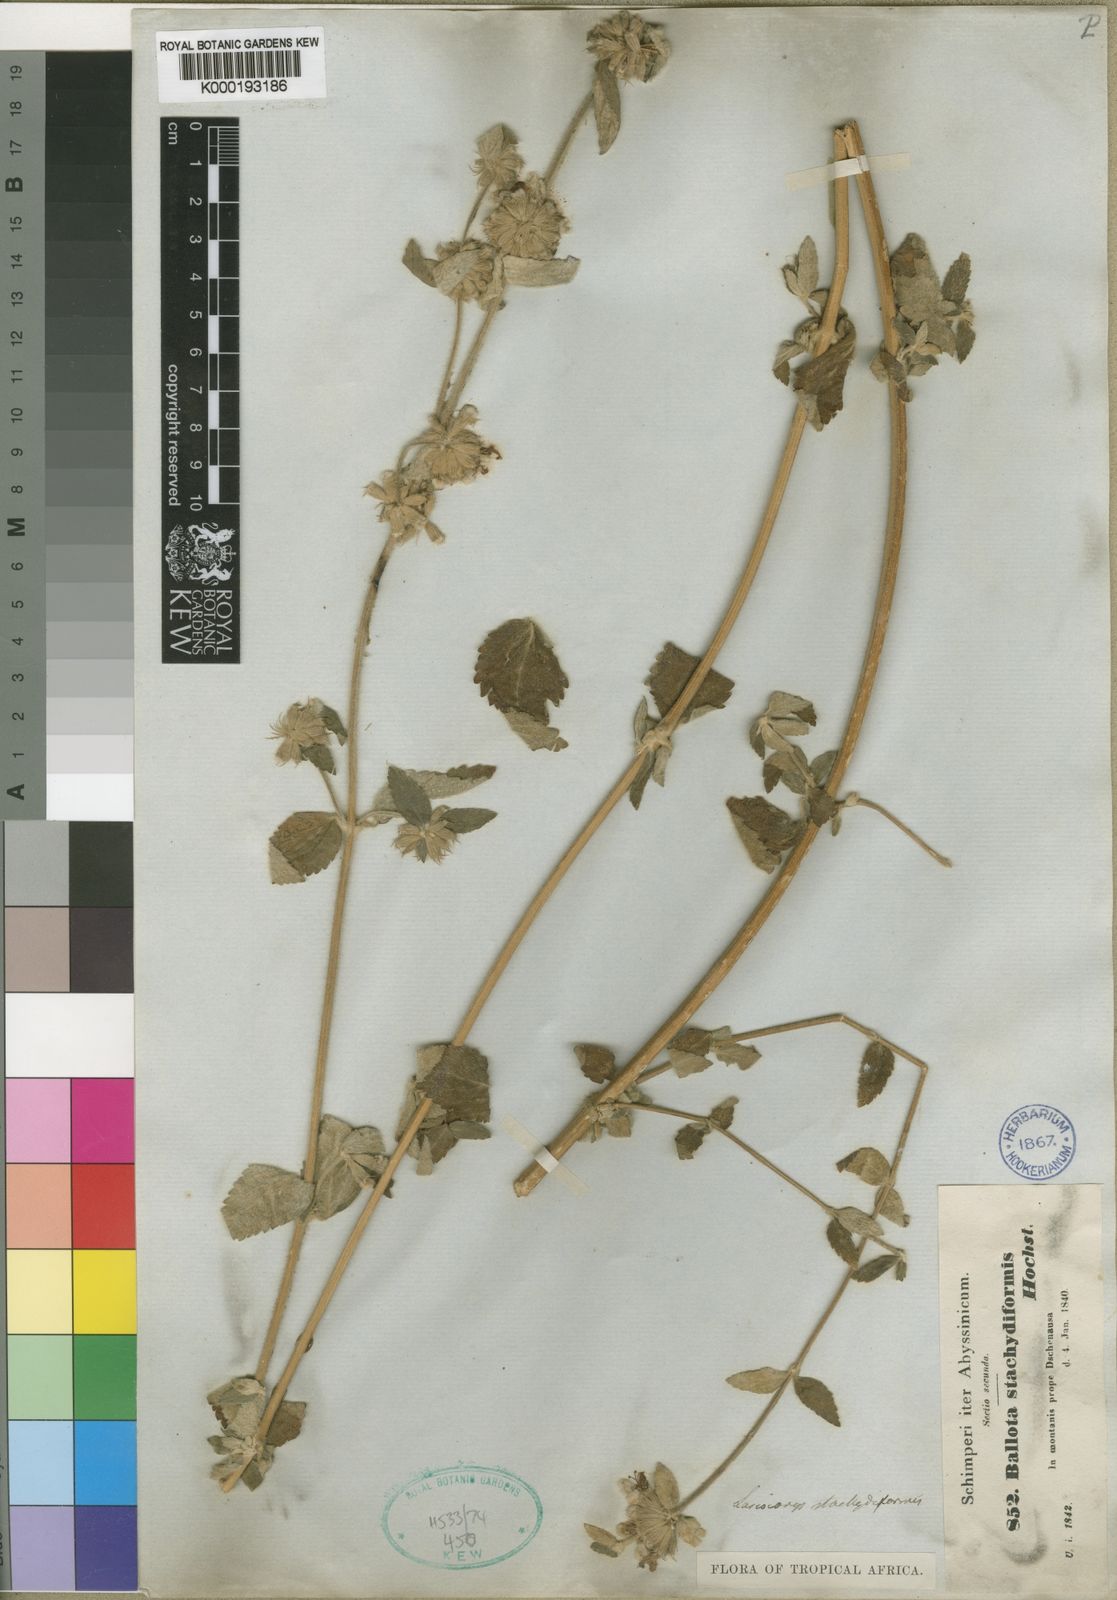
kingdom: Plantae
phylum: Tracheophyta
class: Magnoliopsida
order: Lamiales
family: Lamiaceae
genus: Leucas
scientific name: Leucas stachydiformis
